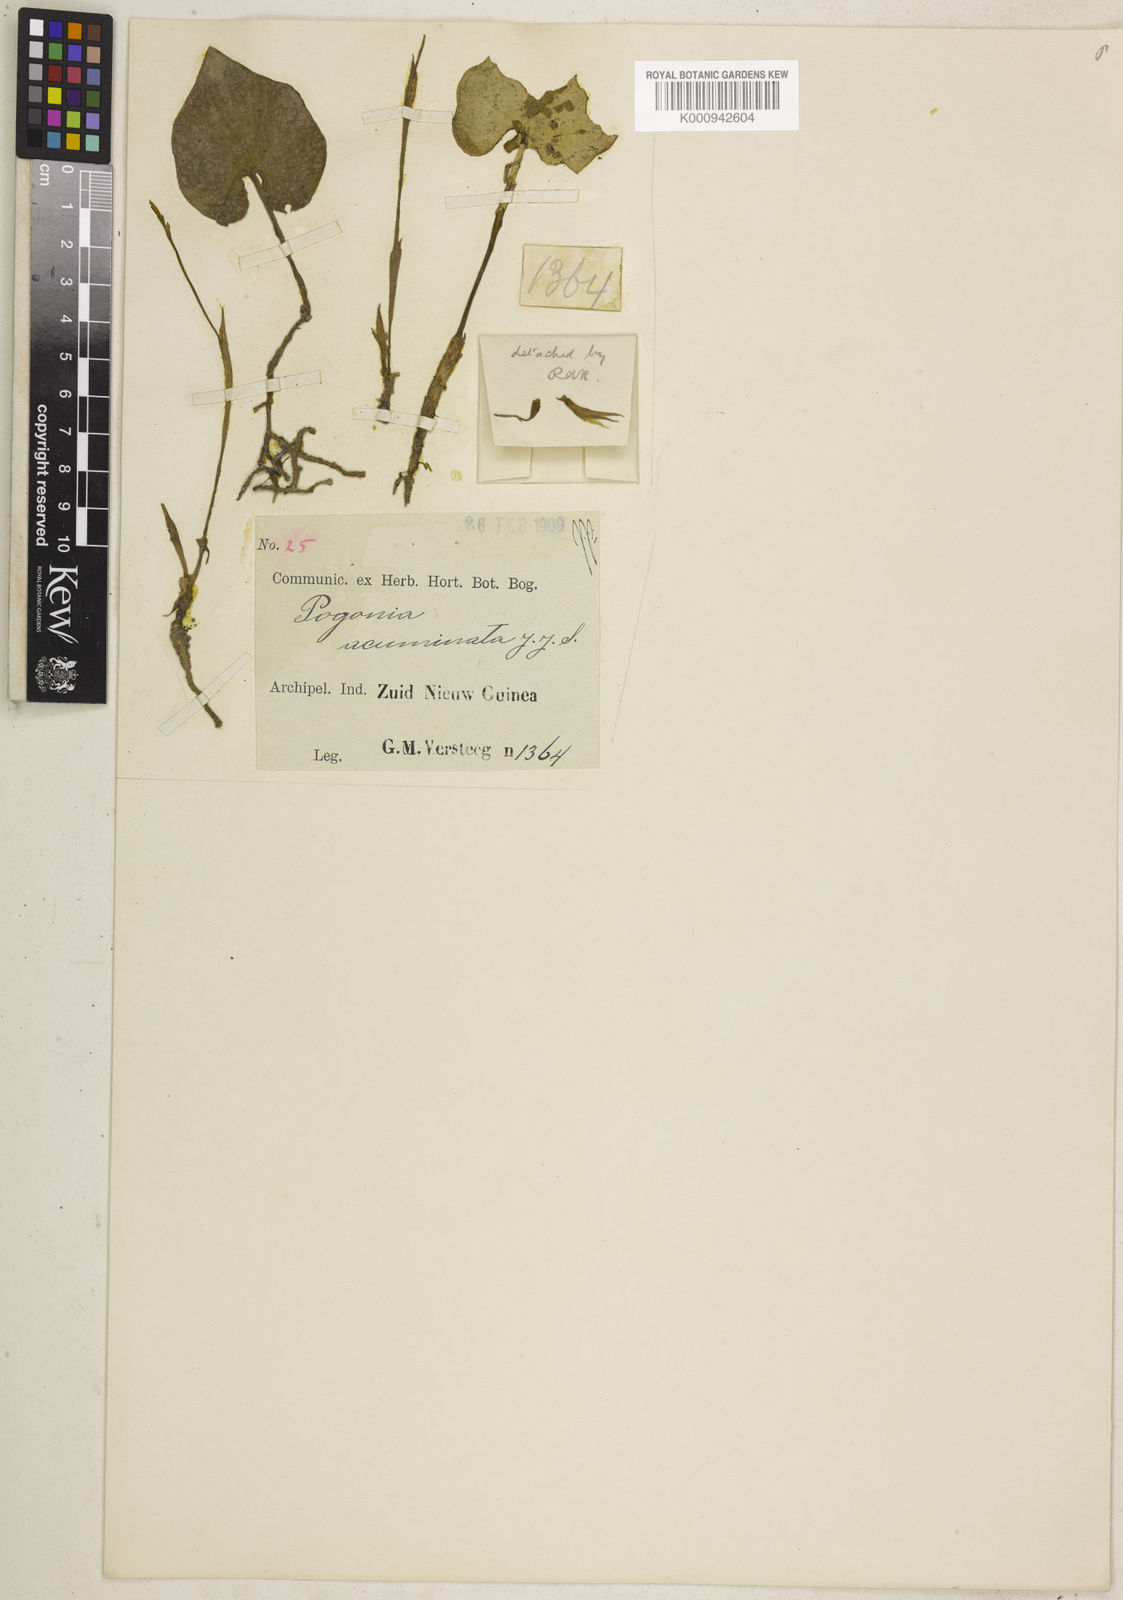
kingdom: Plantae
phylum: Tracheophyta
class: Liliopsida
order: Asparagales
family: Orchidaceae
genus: Nervilia
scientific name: Nervilia acuminata
